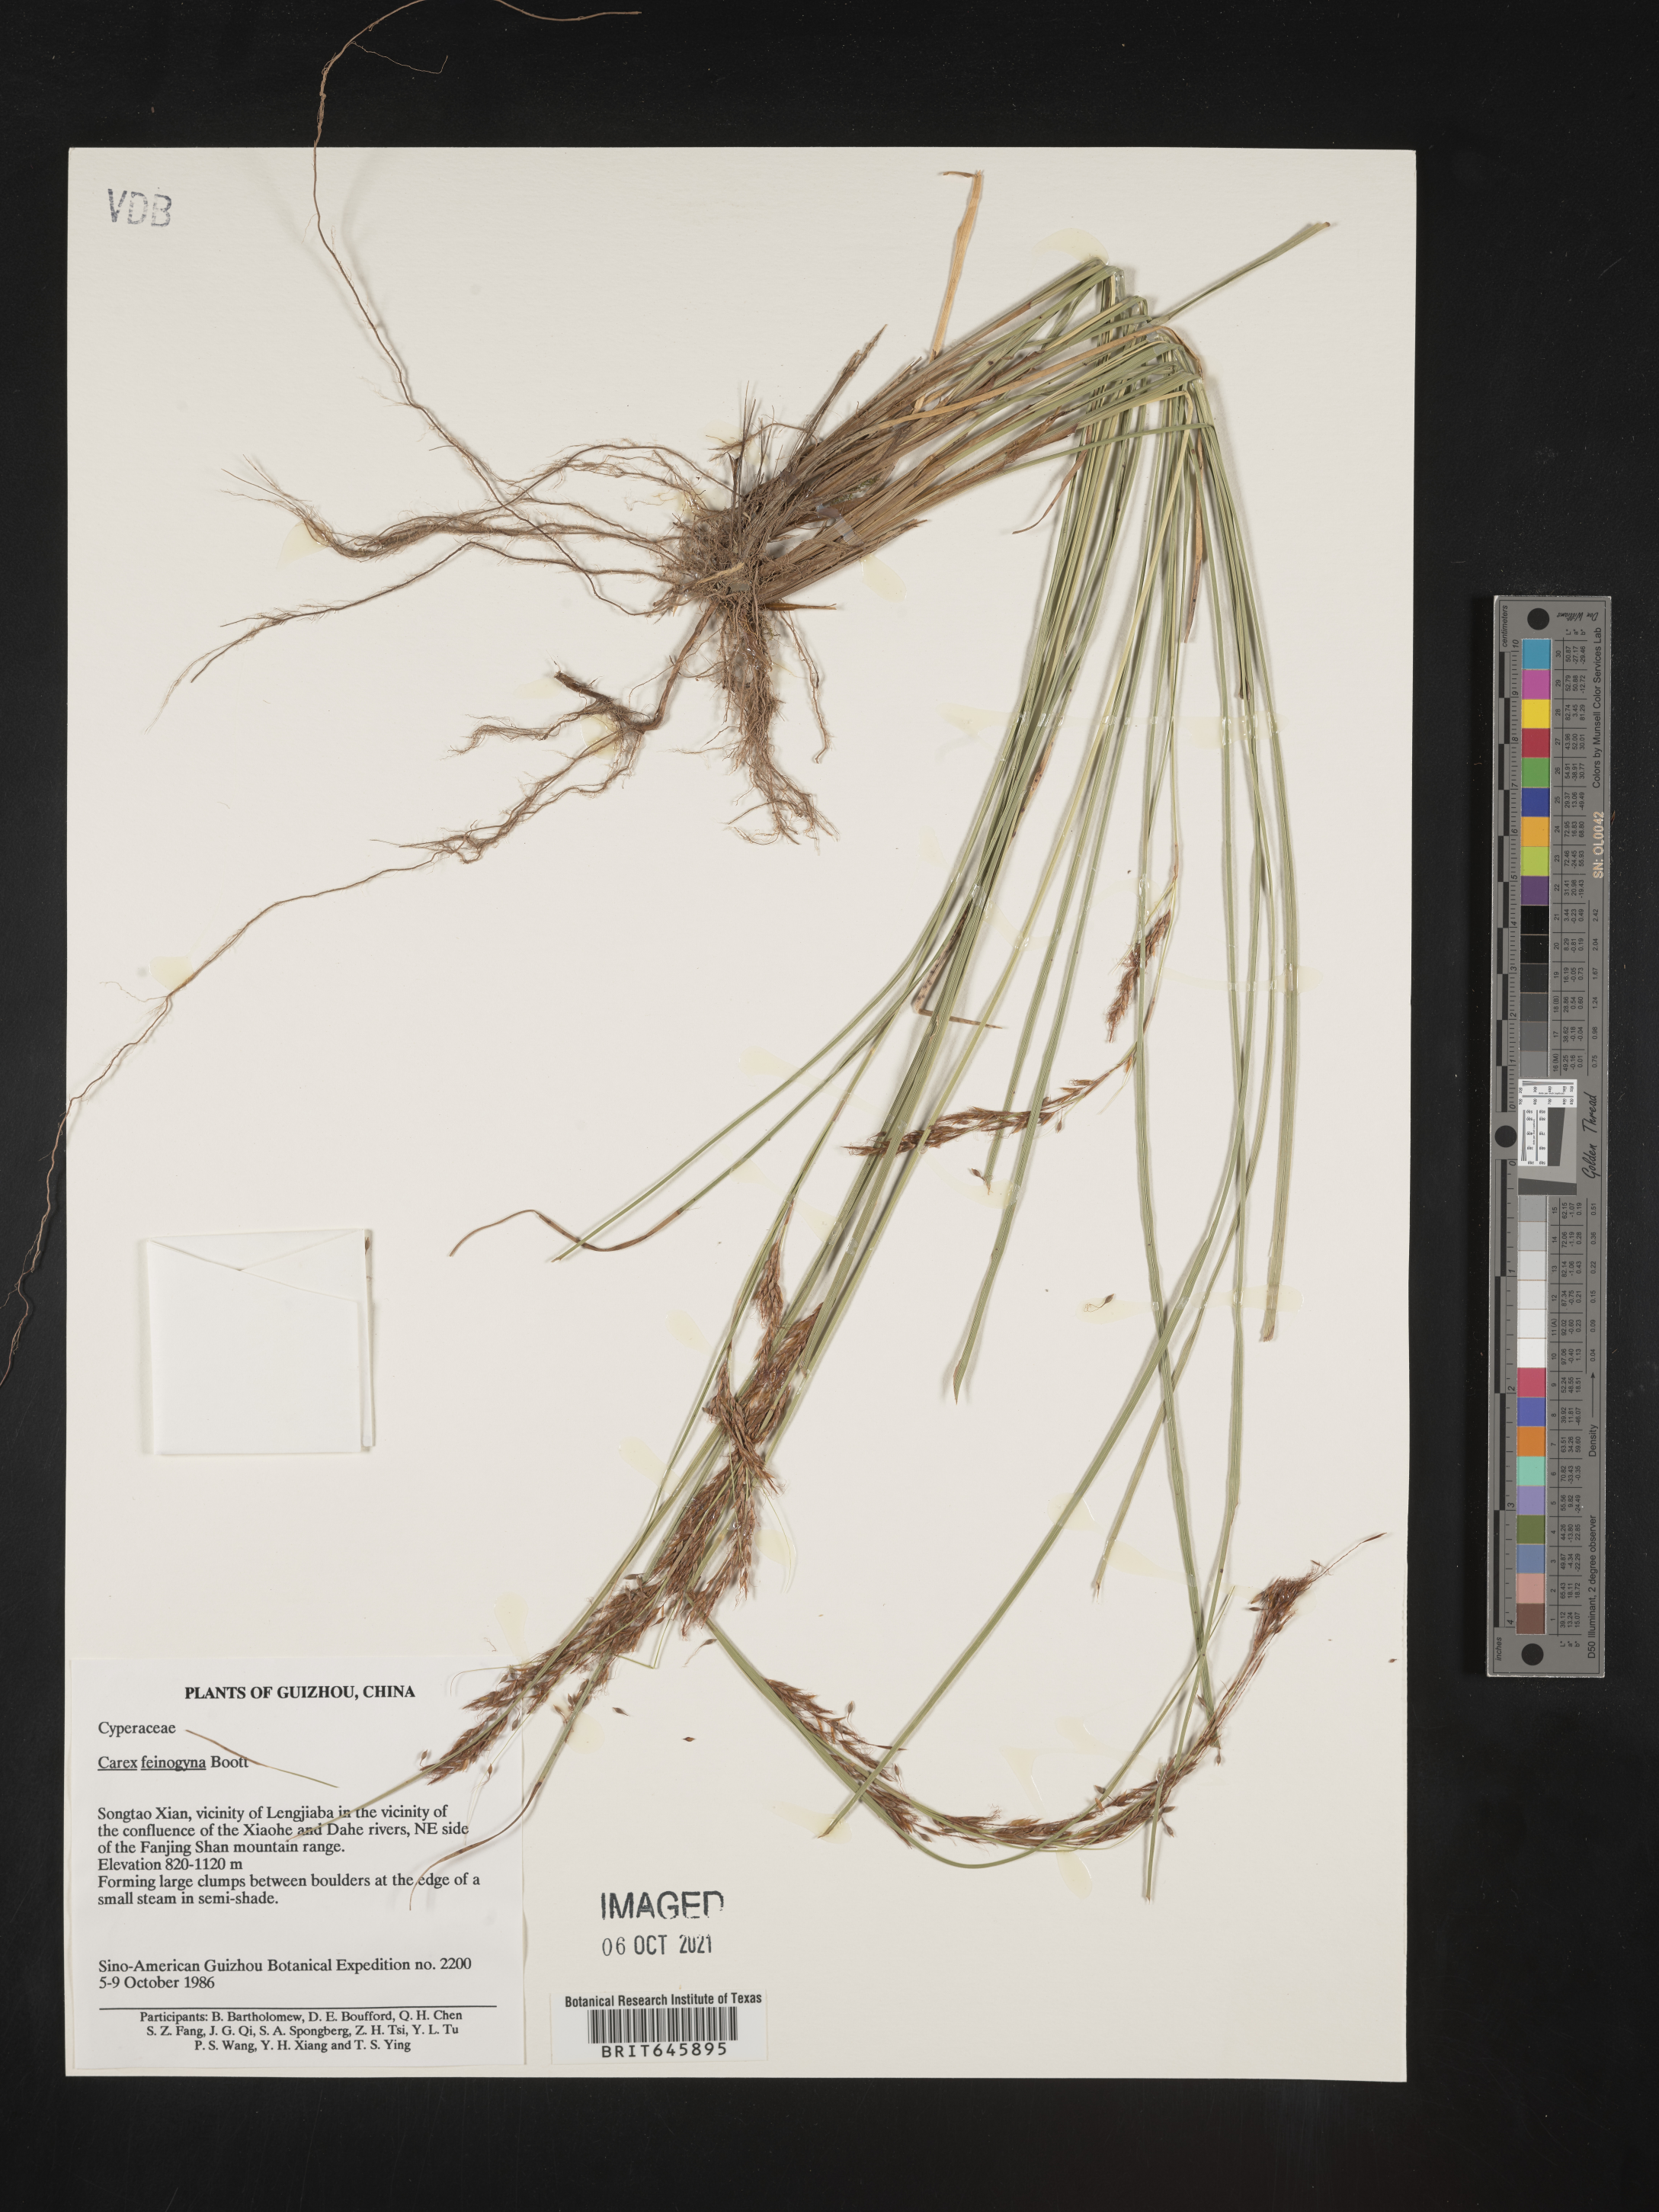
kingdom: Plantae
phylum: Tracheophyta
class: Liliopsida
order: Poales
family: Cyperaceae
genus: Carex
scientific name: Carex
